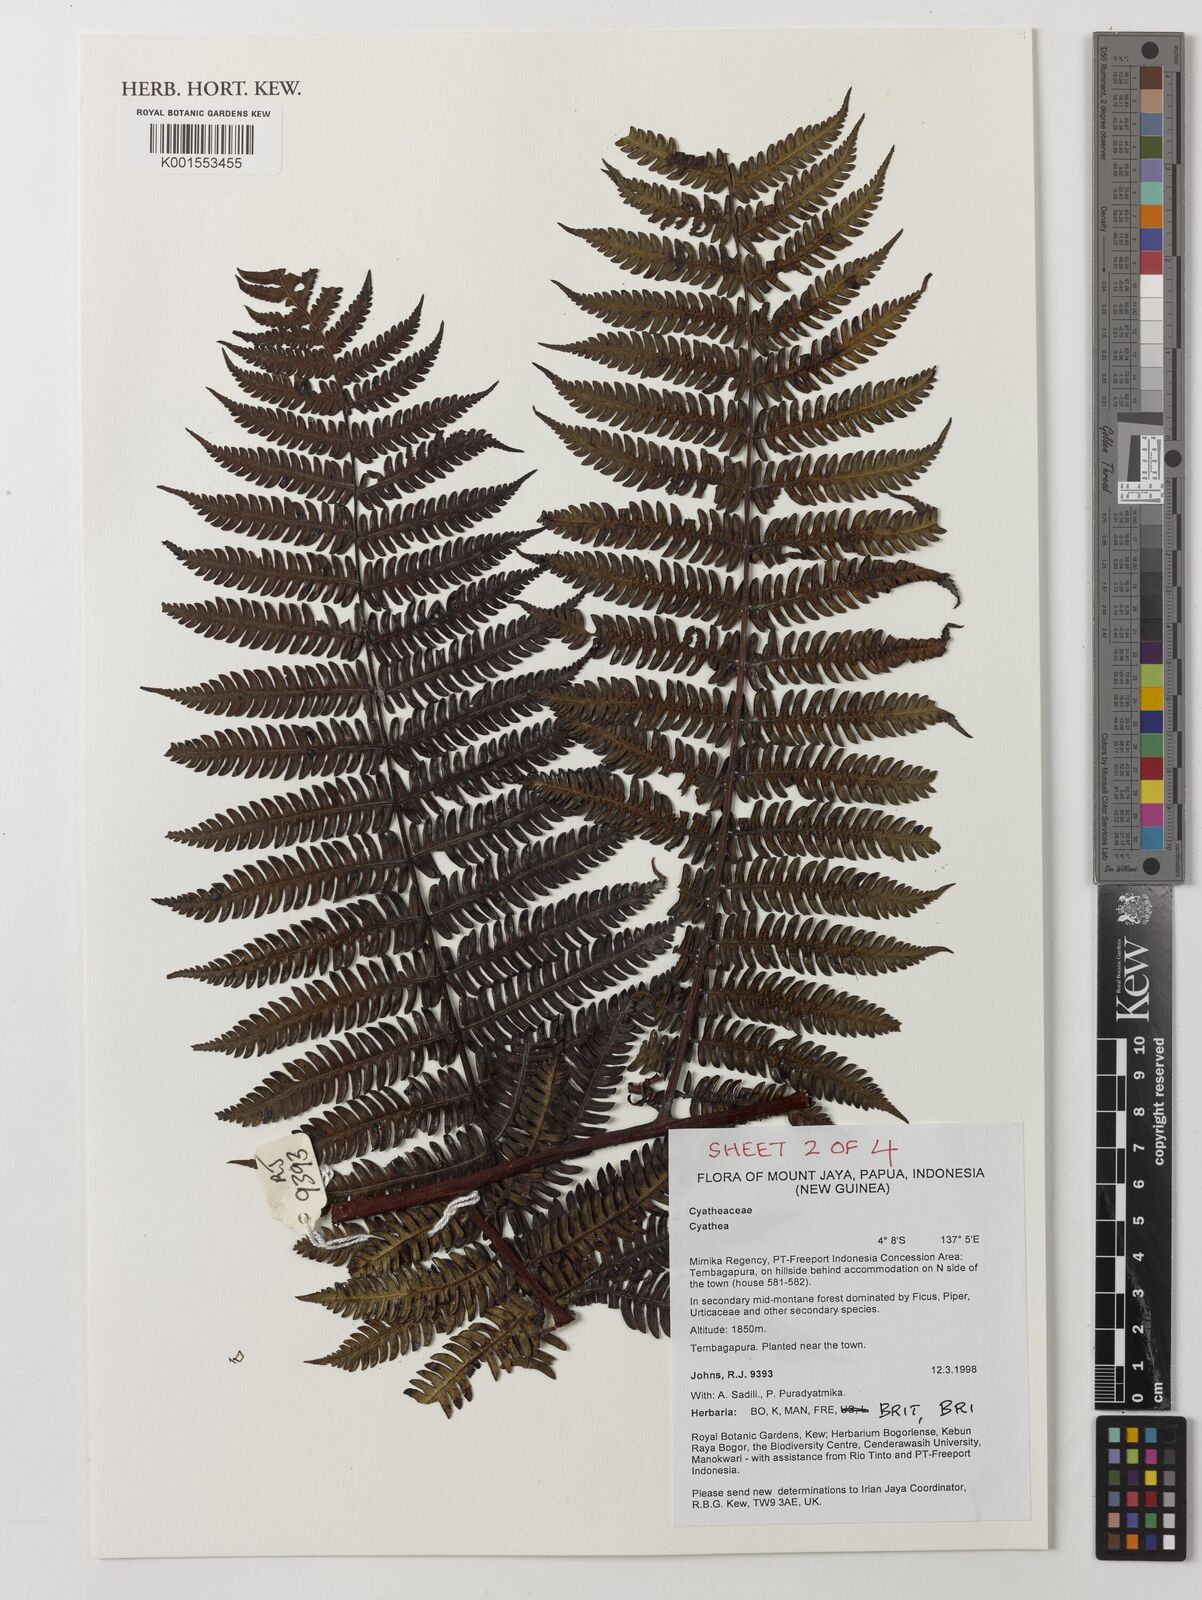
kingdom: Plantae
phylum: Tracheophyta
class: Polypodiopsida
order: Cyatheales
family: Cyatheaceae
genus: Cyathea
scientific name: Cyathea
